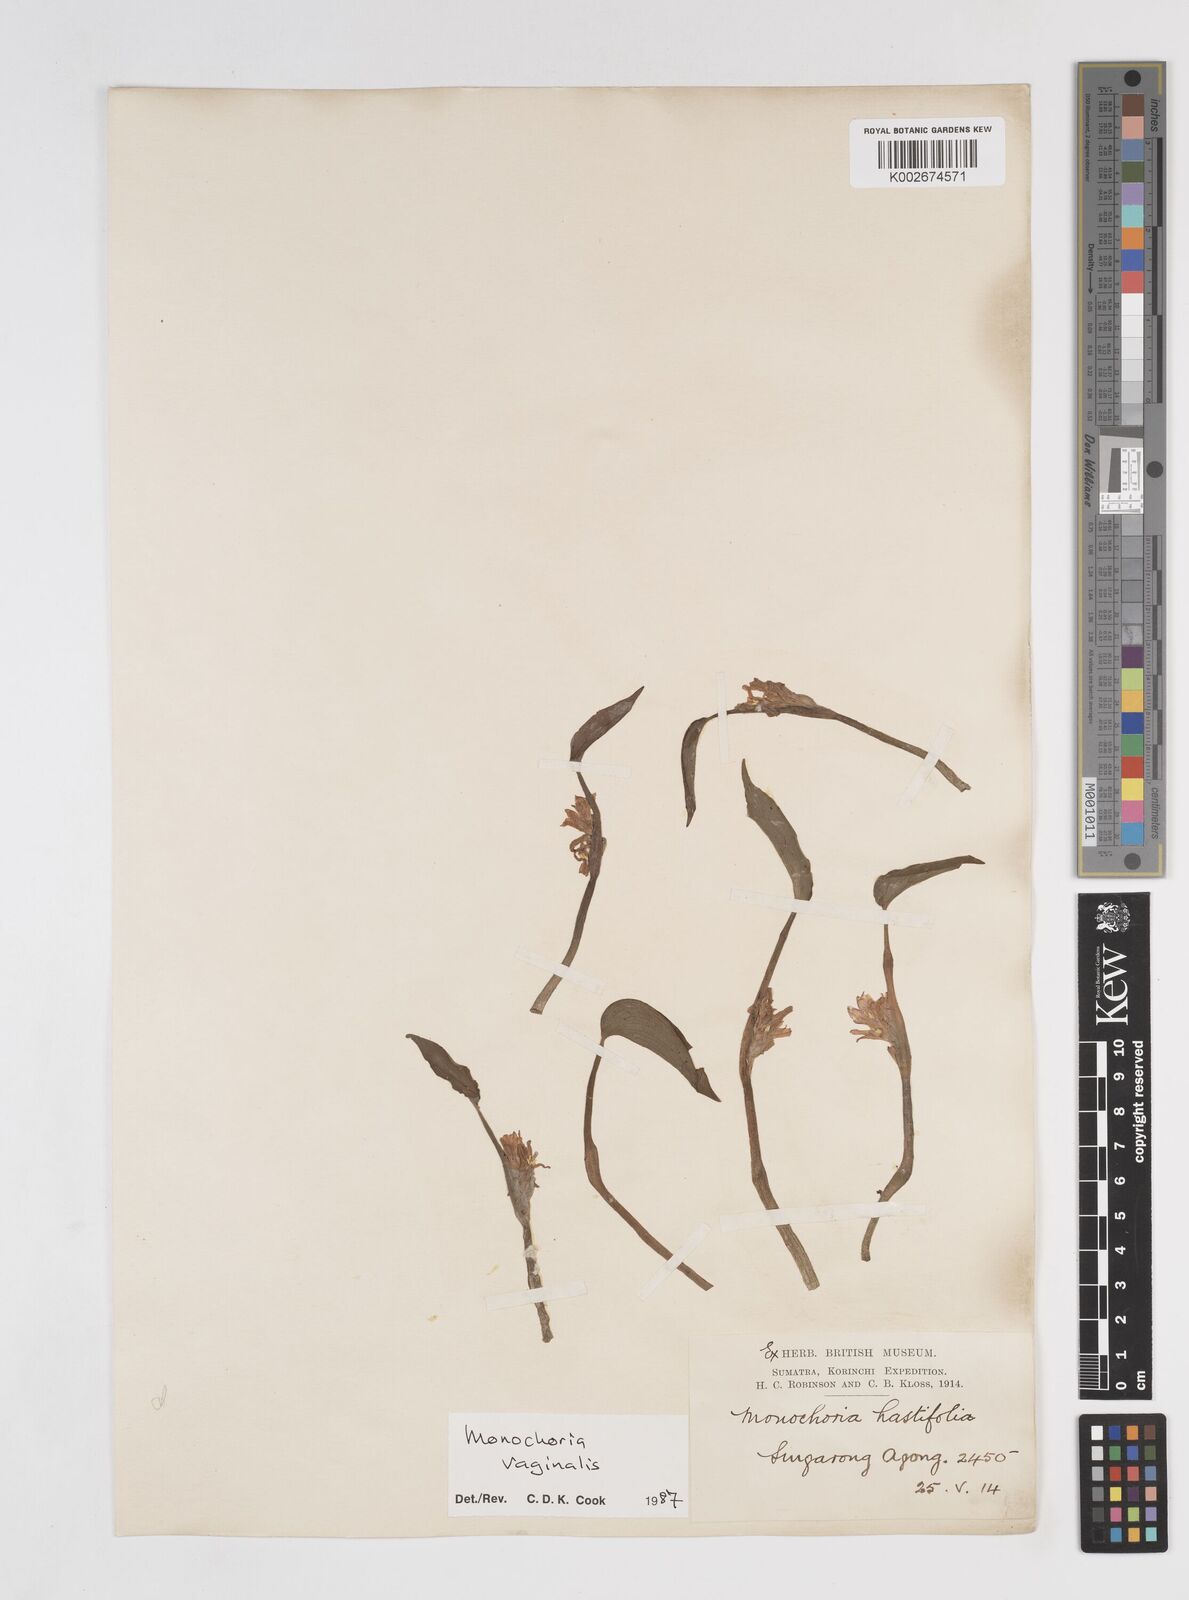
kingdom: Plantae
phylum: Tracheophyta
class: Liliopsida
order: Commelinales
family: Pontederiaceae
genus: Pontederia
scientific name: Pontederia vaginalis
